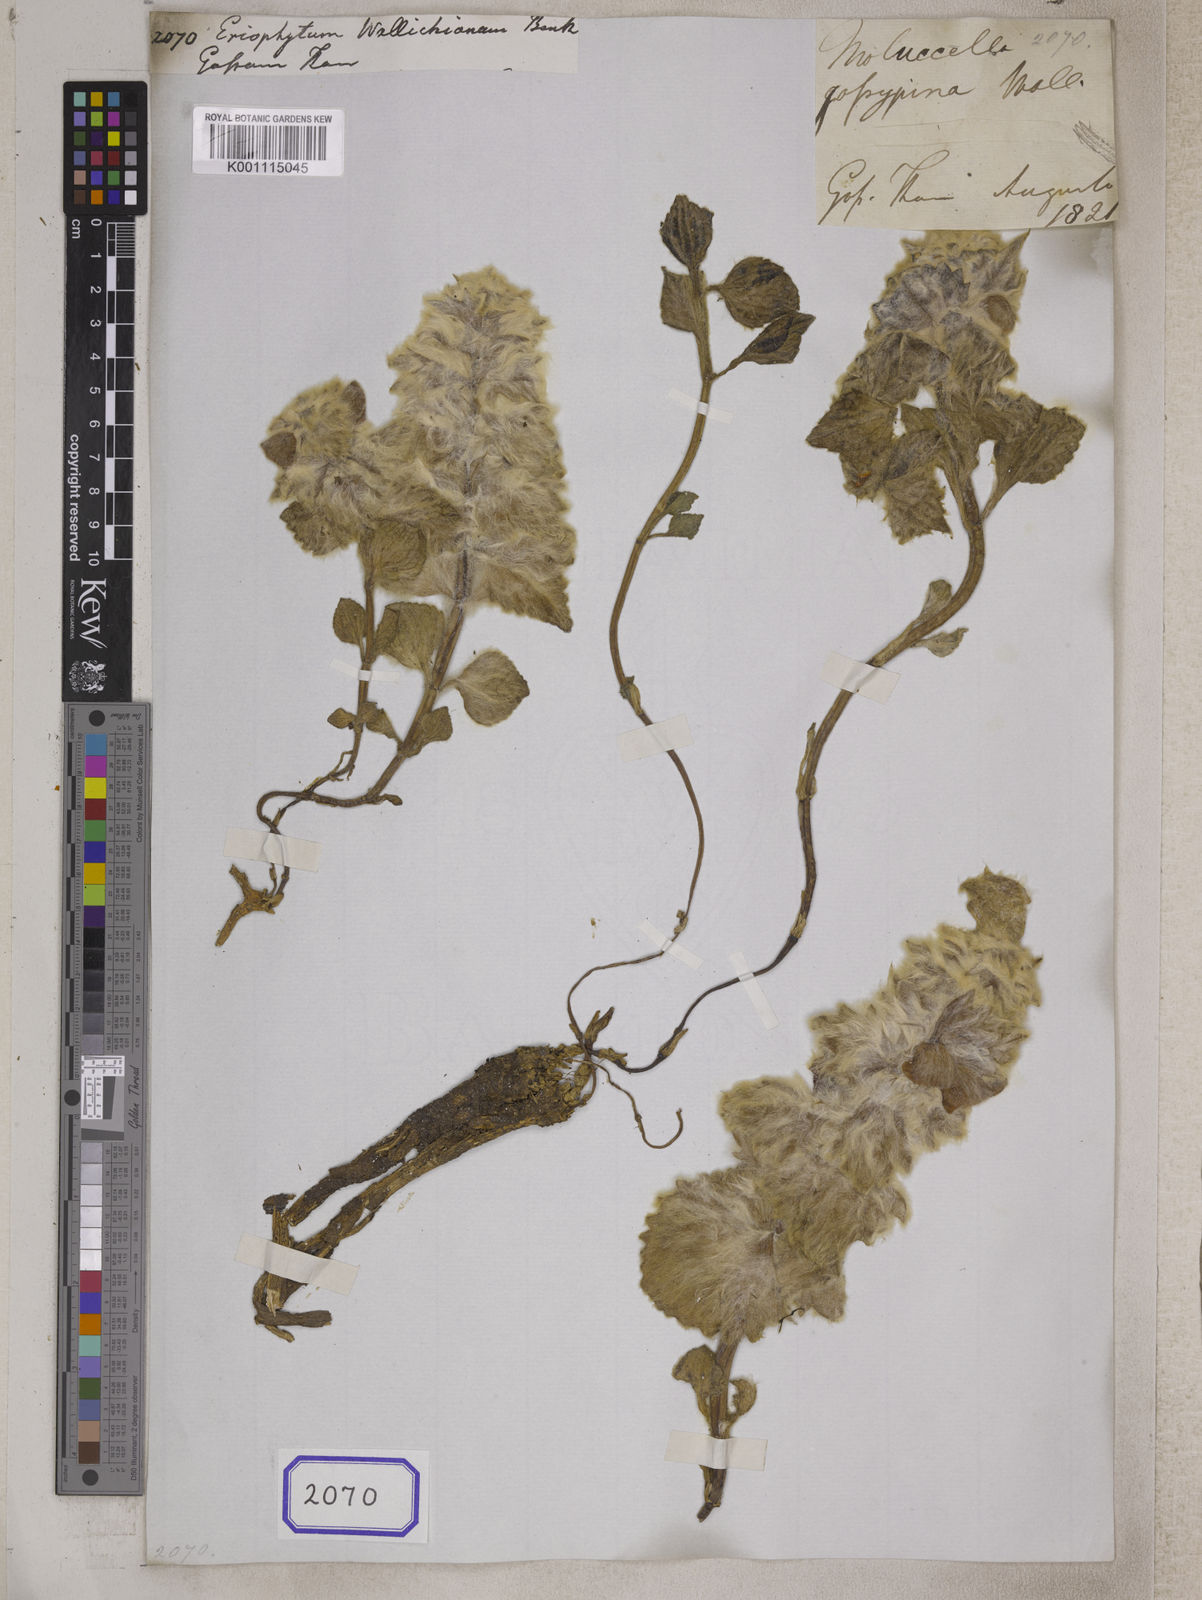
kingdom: Plantae
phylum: Tracheophyta
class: Magnoliopsida
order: Lamiales
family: Lamiaceae
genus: Eriophyton
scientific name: Eriophyton wallichii
